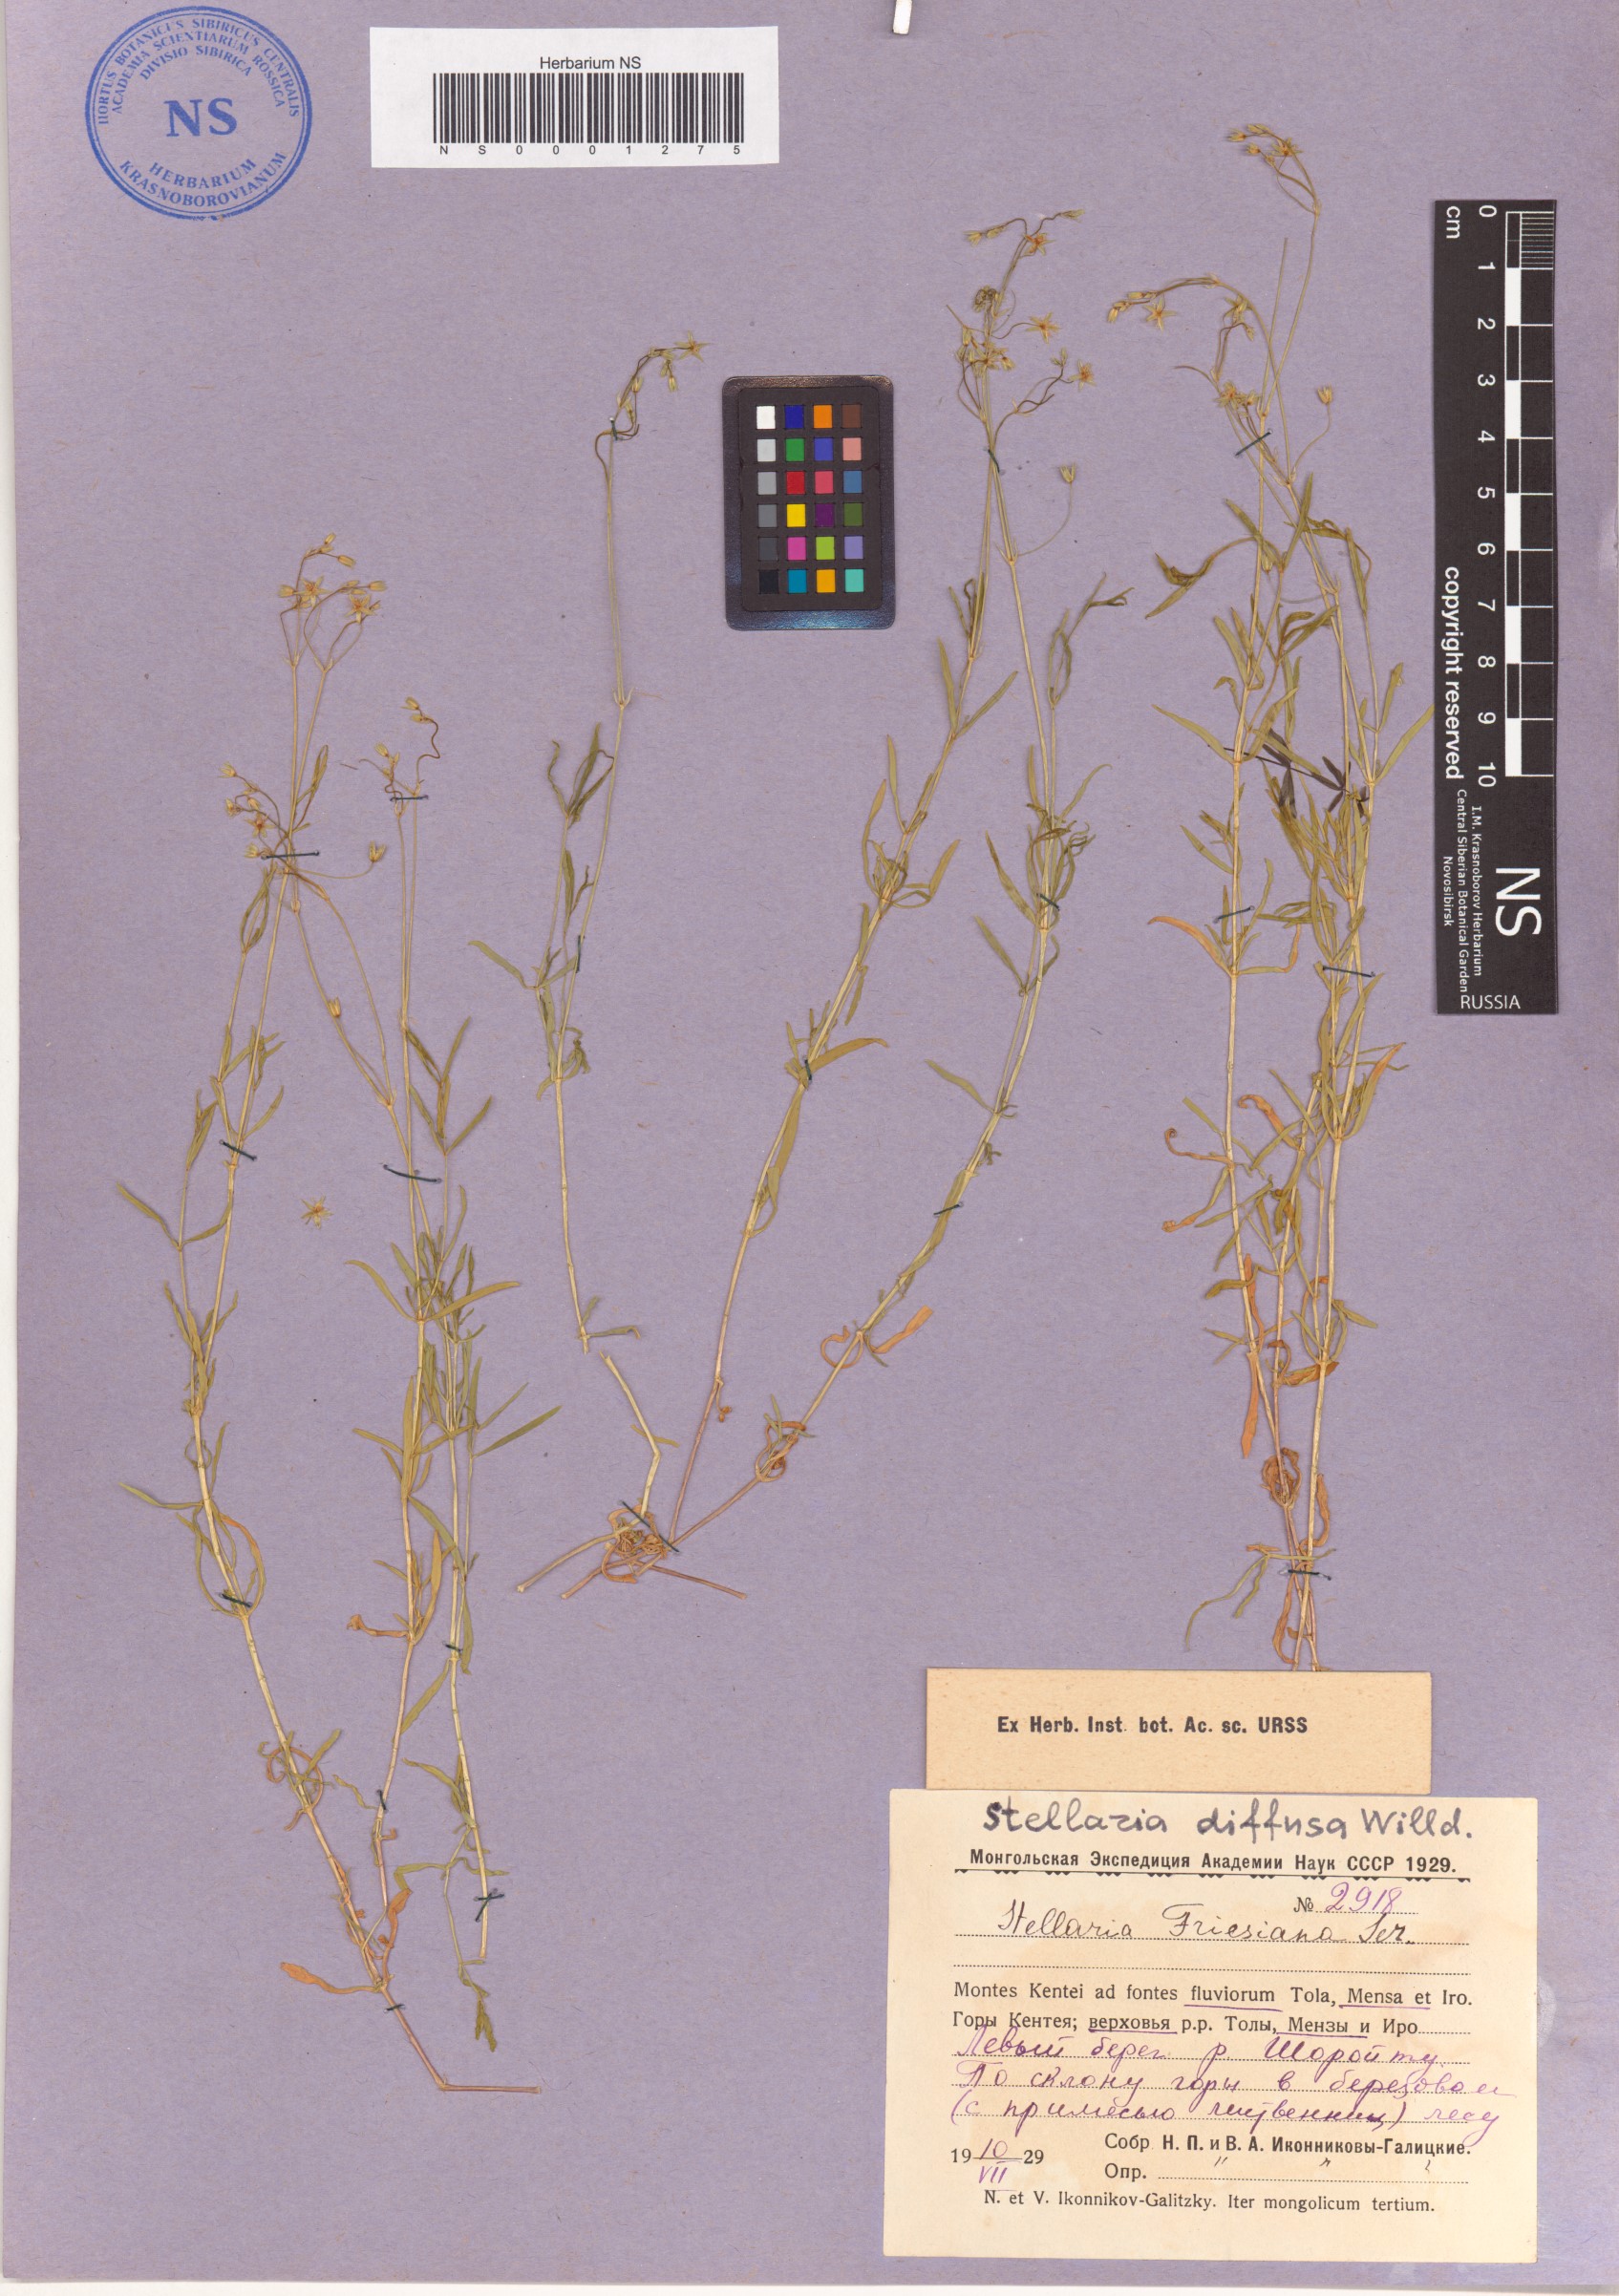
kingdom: Plantae
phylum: Tracheophyta
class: Magnoliopsida
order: Caryophyllales
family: Caryophyllaceae
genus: Stellaria
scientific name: Stellaria longifolia
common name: Long-leaved chickweed
